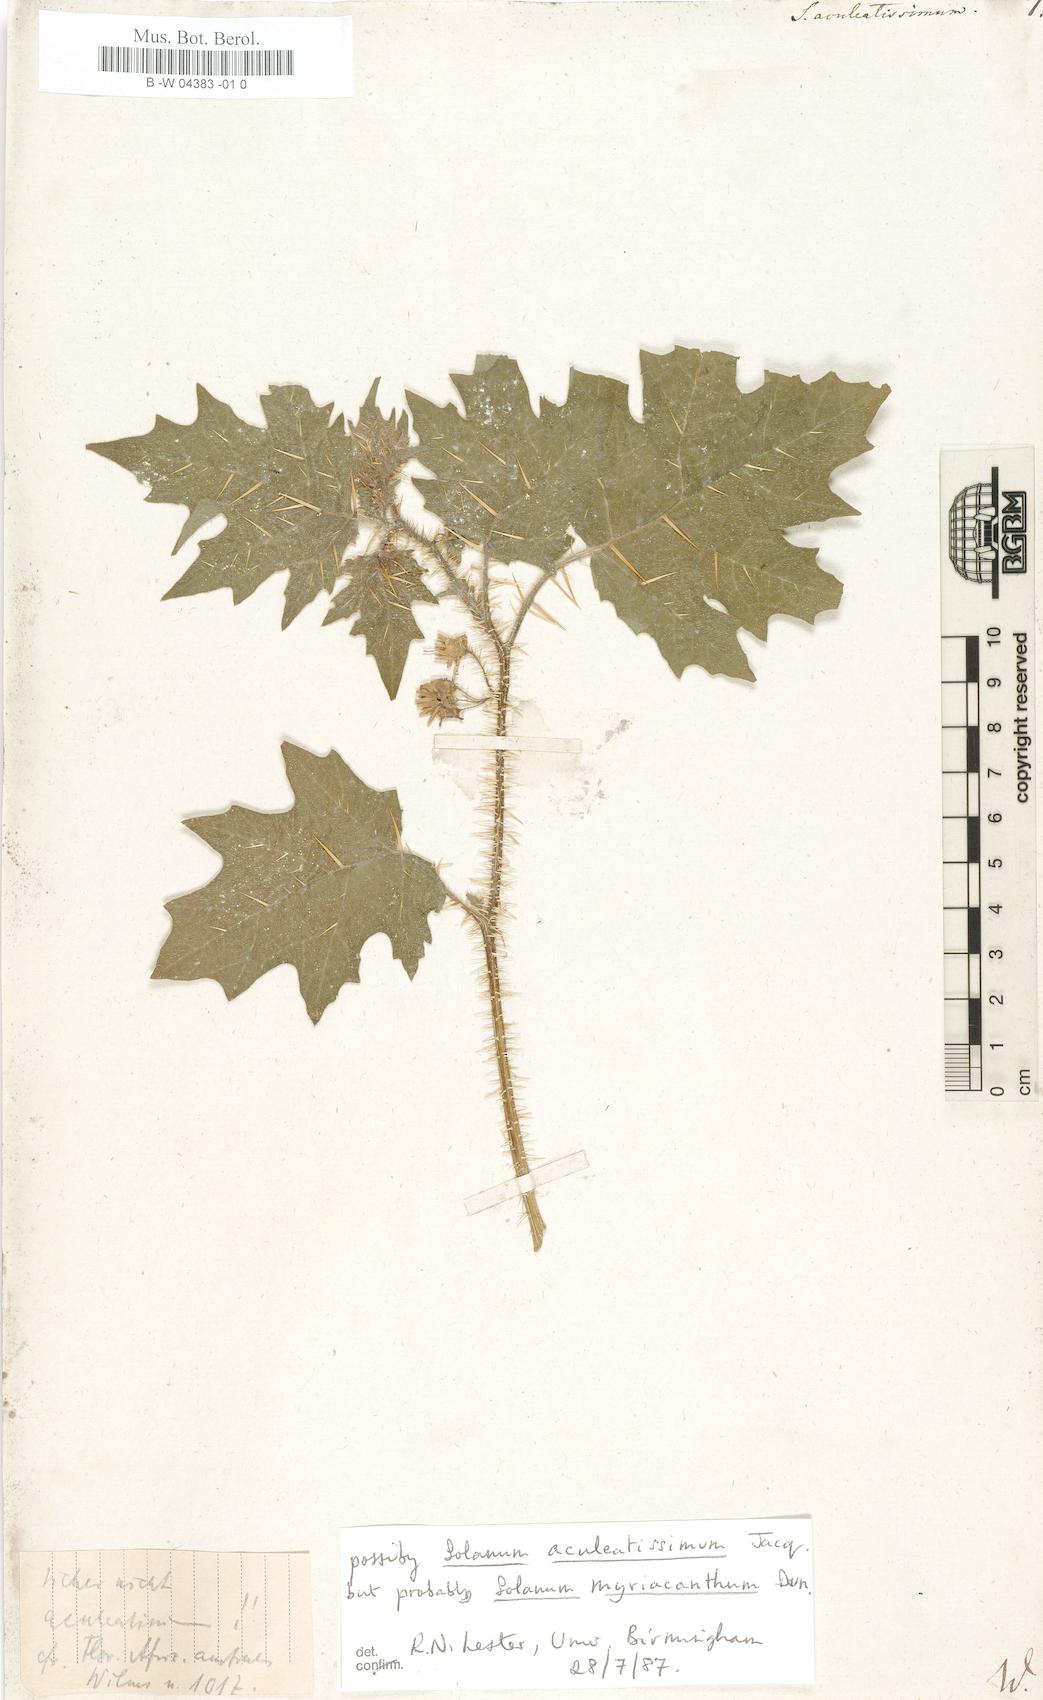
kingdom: Plantae
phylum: Tracheophyta
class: Magnoliopsida
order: Solanales
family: Solanaceae
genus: Solanum
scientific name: Solanum aculeatissimum
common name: Dutch eggplant
